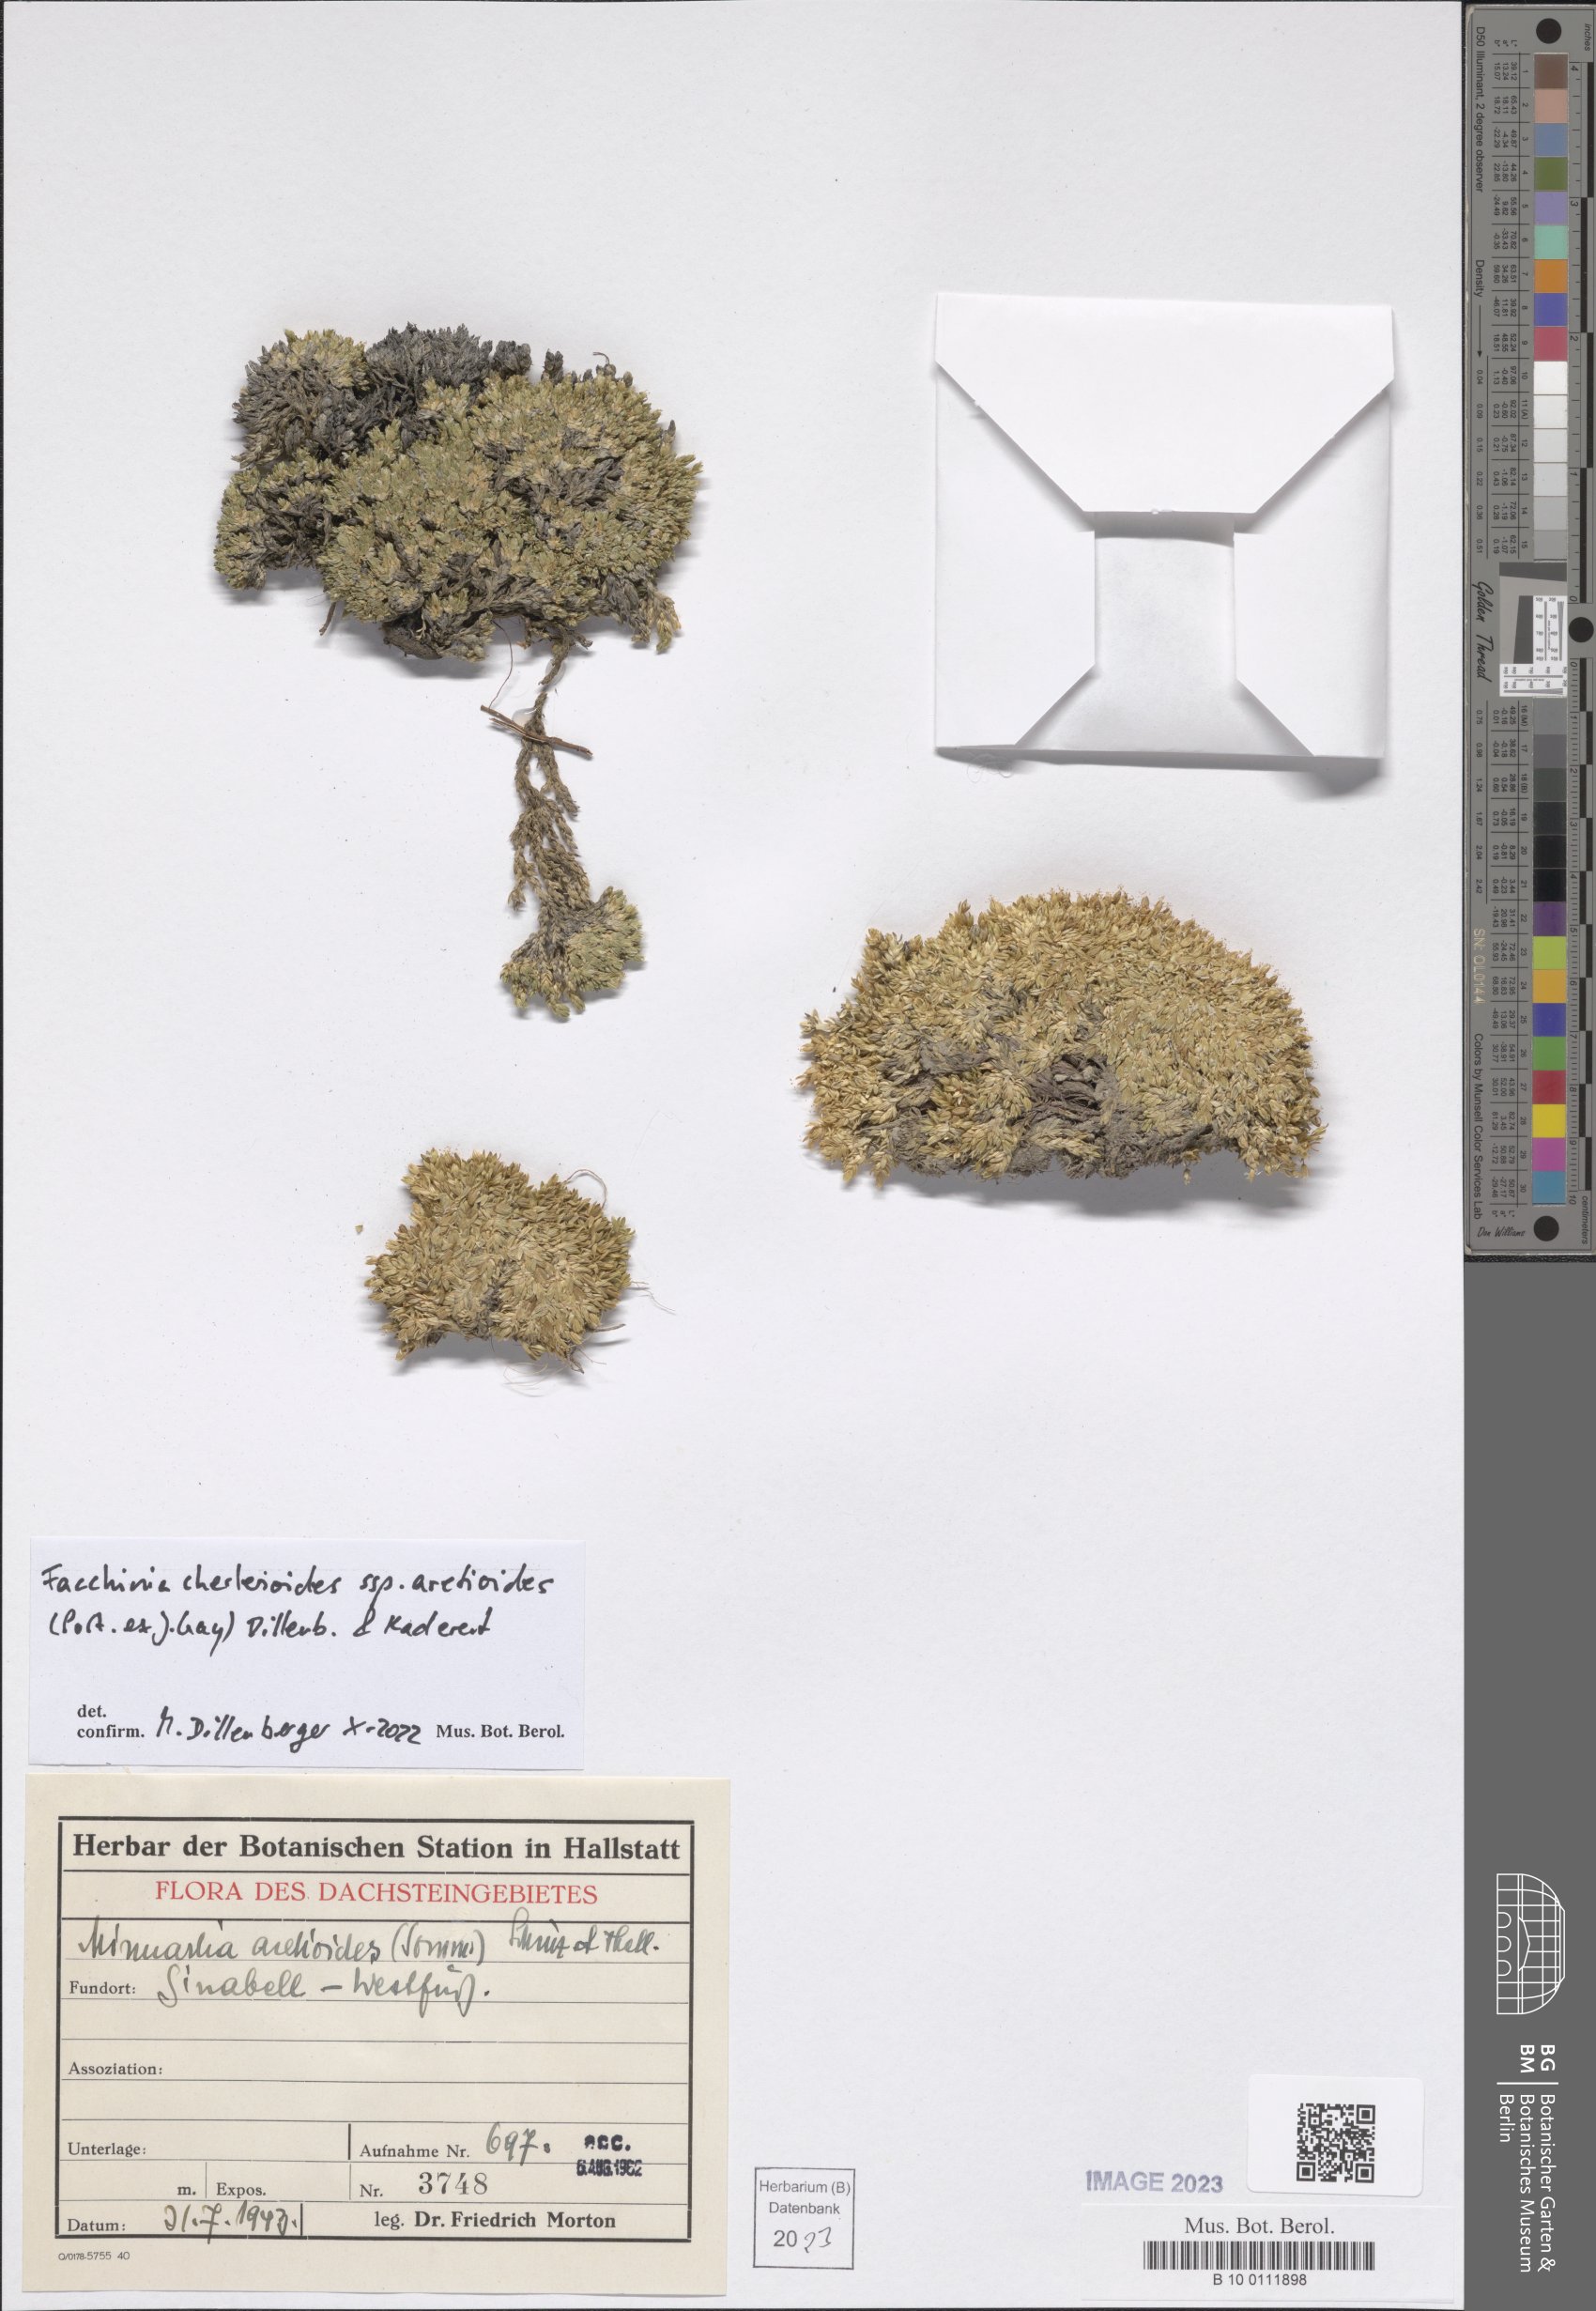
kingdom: Plantae
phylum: Tracheophyta
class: Magnoliopsida
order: Caryophyllales
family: Caryophyllaceae
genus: Facchinia
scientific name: Facchinia cherlerioides
